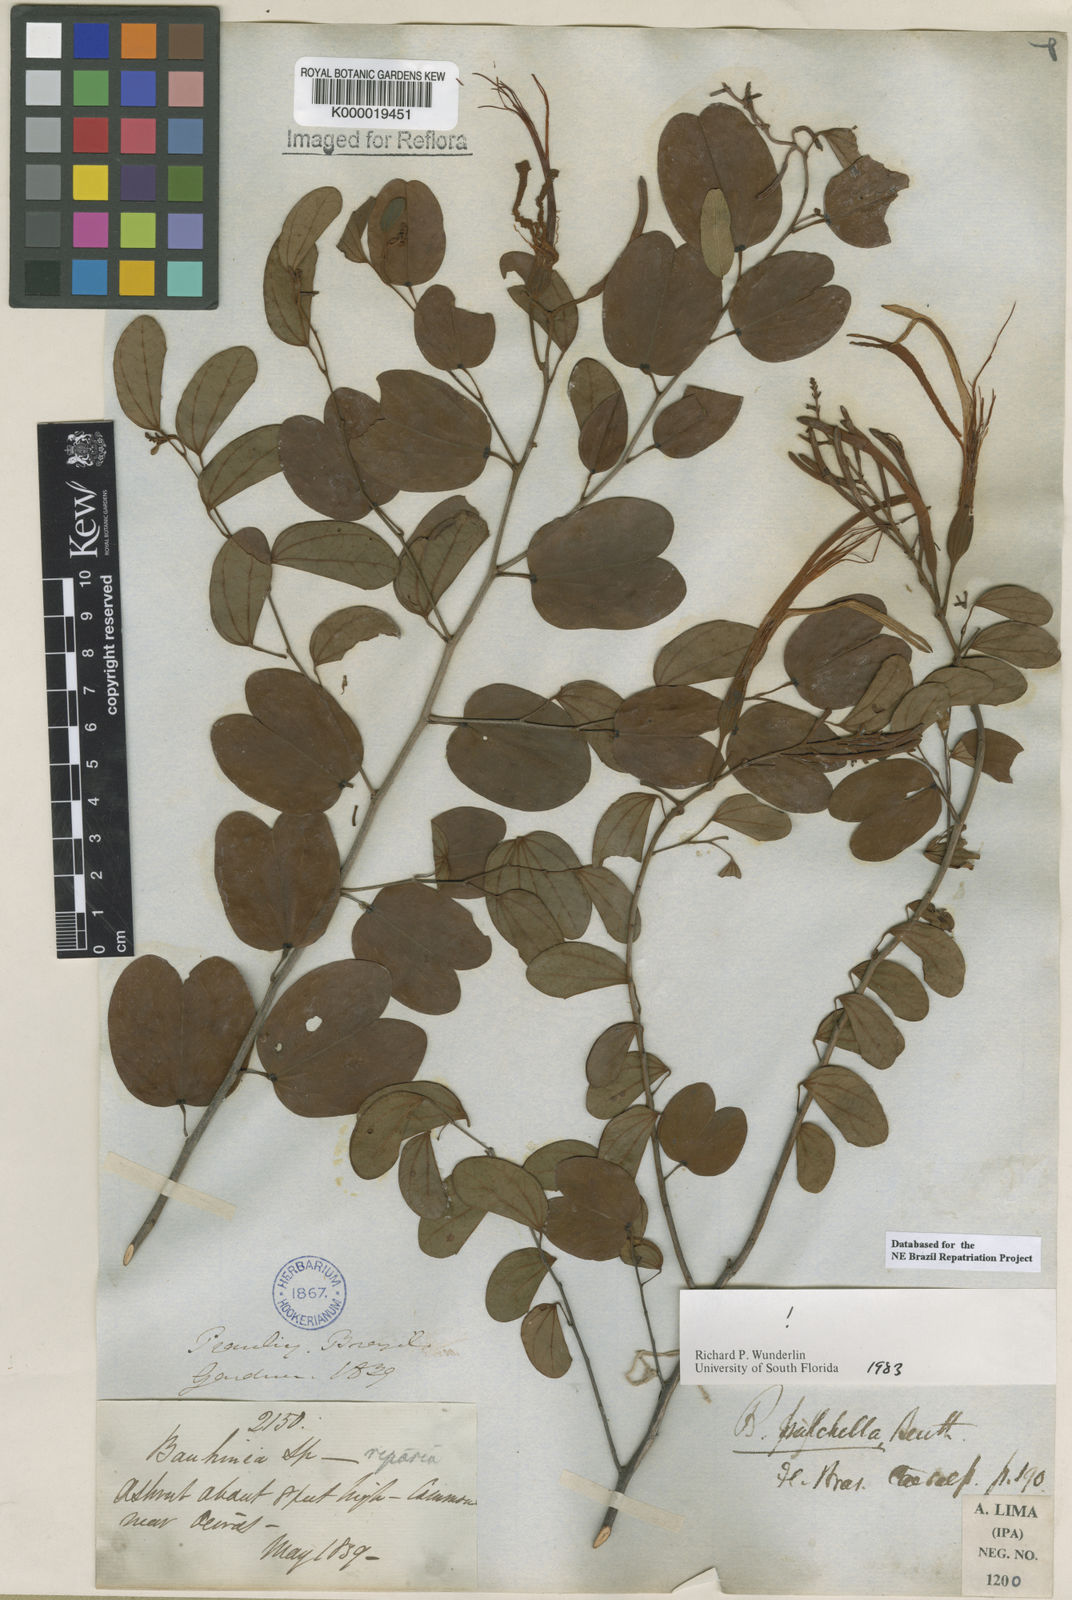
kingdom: Plantae
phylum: Tracheophyta
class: Magnoliopsida
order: Fabales
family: Fabaceae
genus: Bauhinia
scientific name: Bauhinia pulchella
